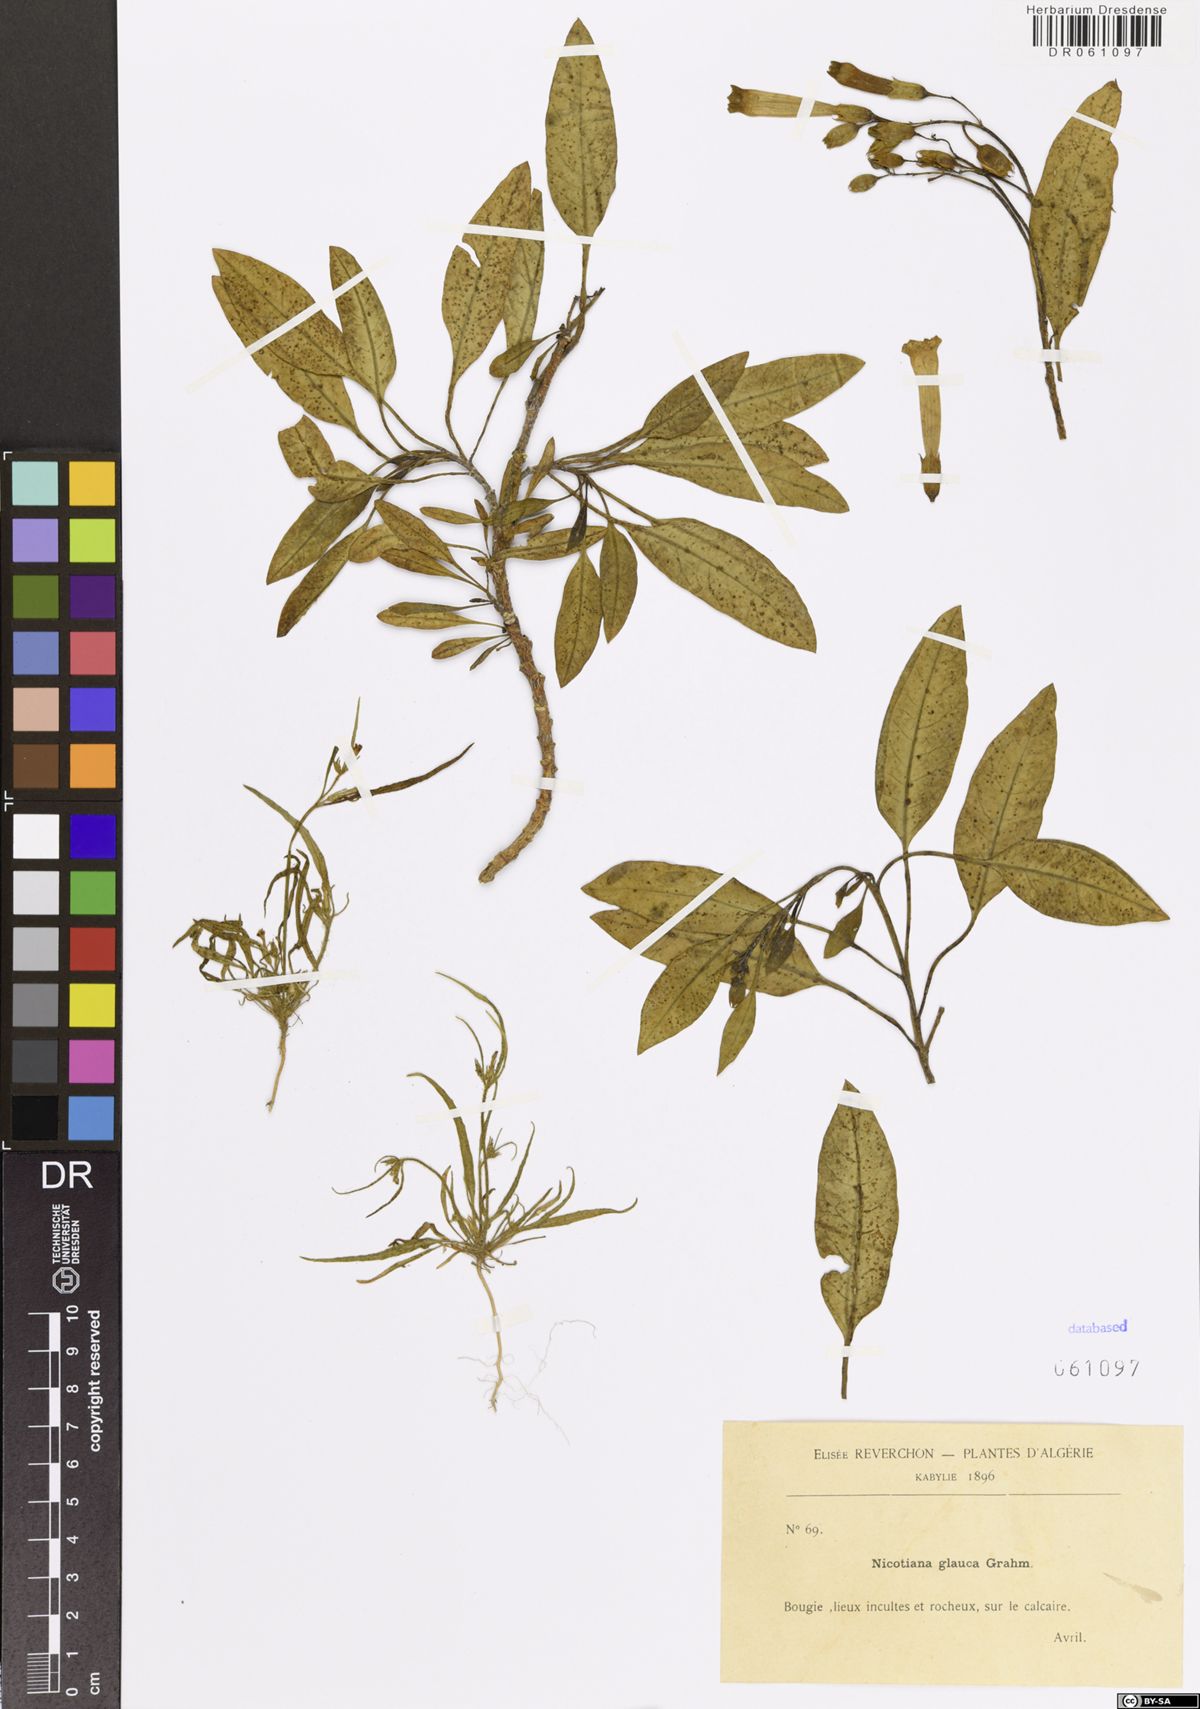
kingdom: Plantae
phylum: Tracheophyta
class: Magnoliopsida
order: Solanales
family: Solanaceae
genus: Nicotiana
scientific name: Nicotiana glauca
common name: Tree tobacco
